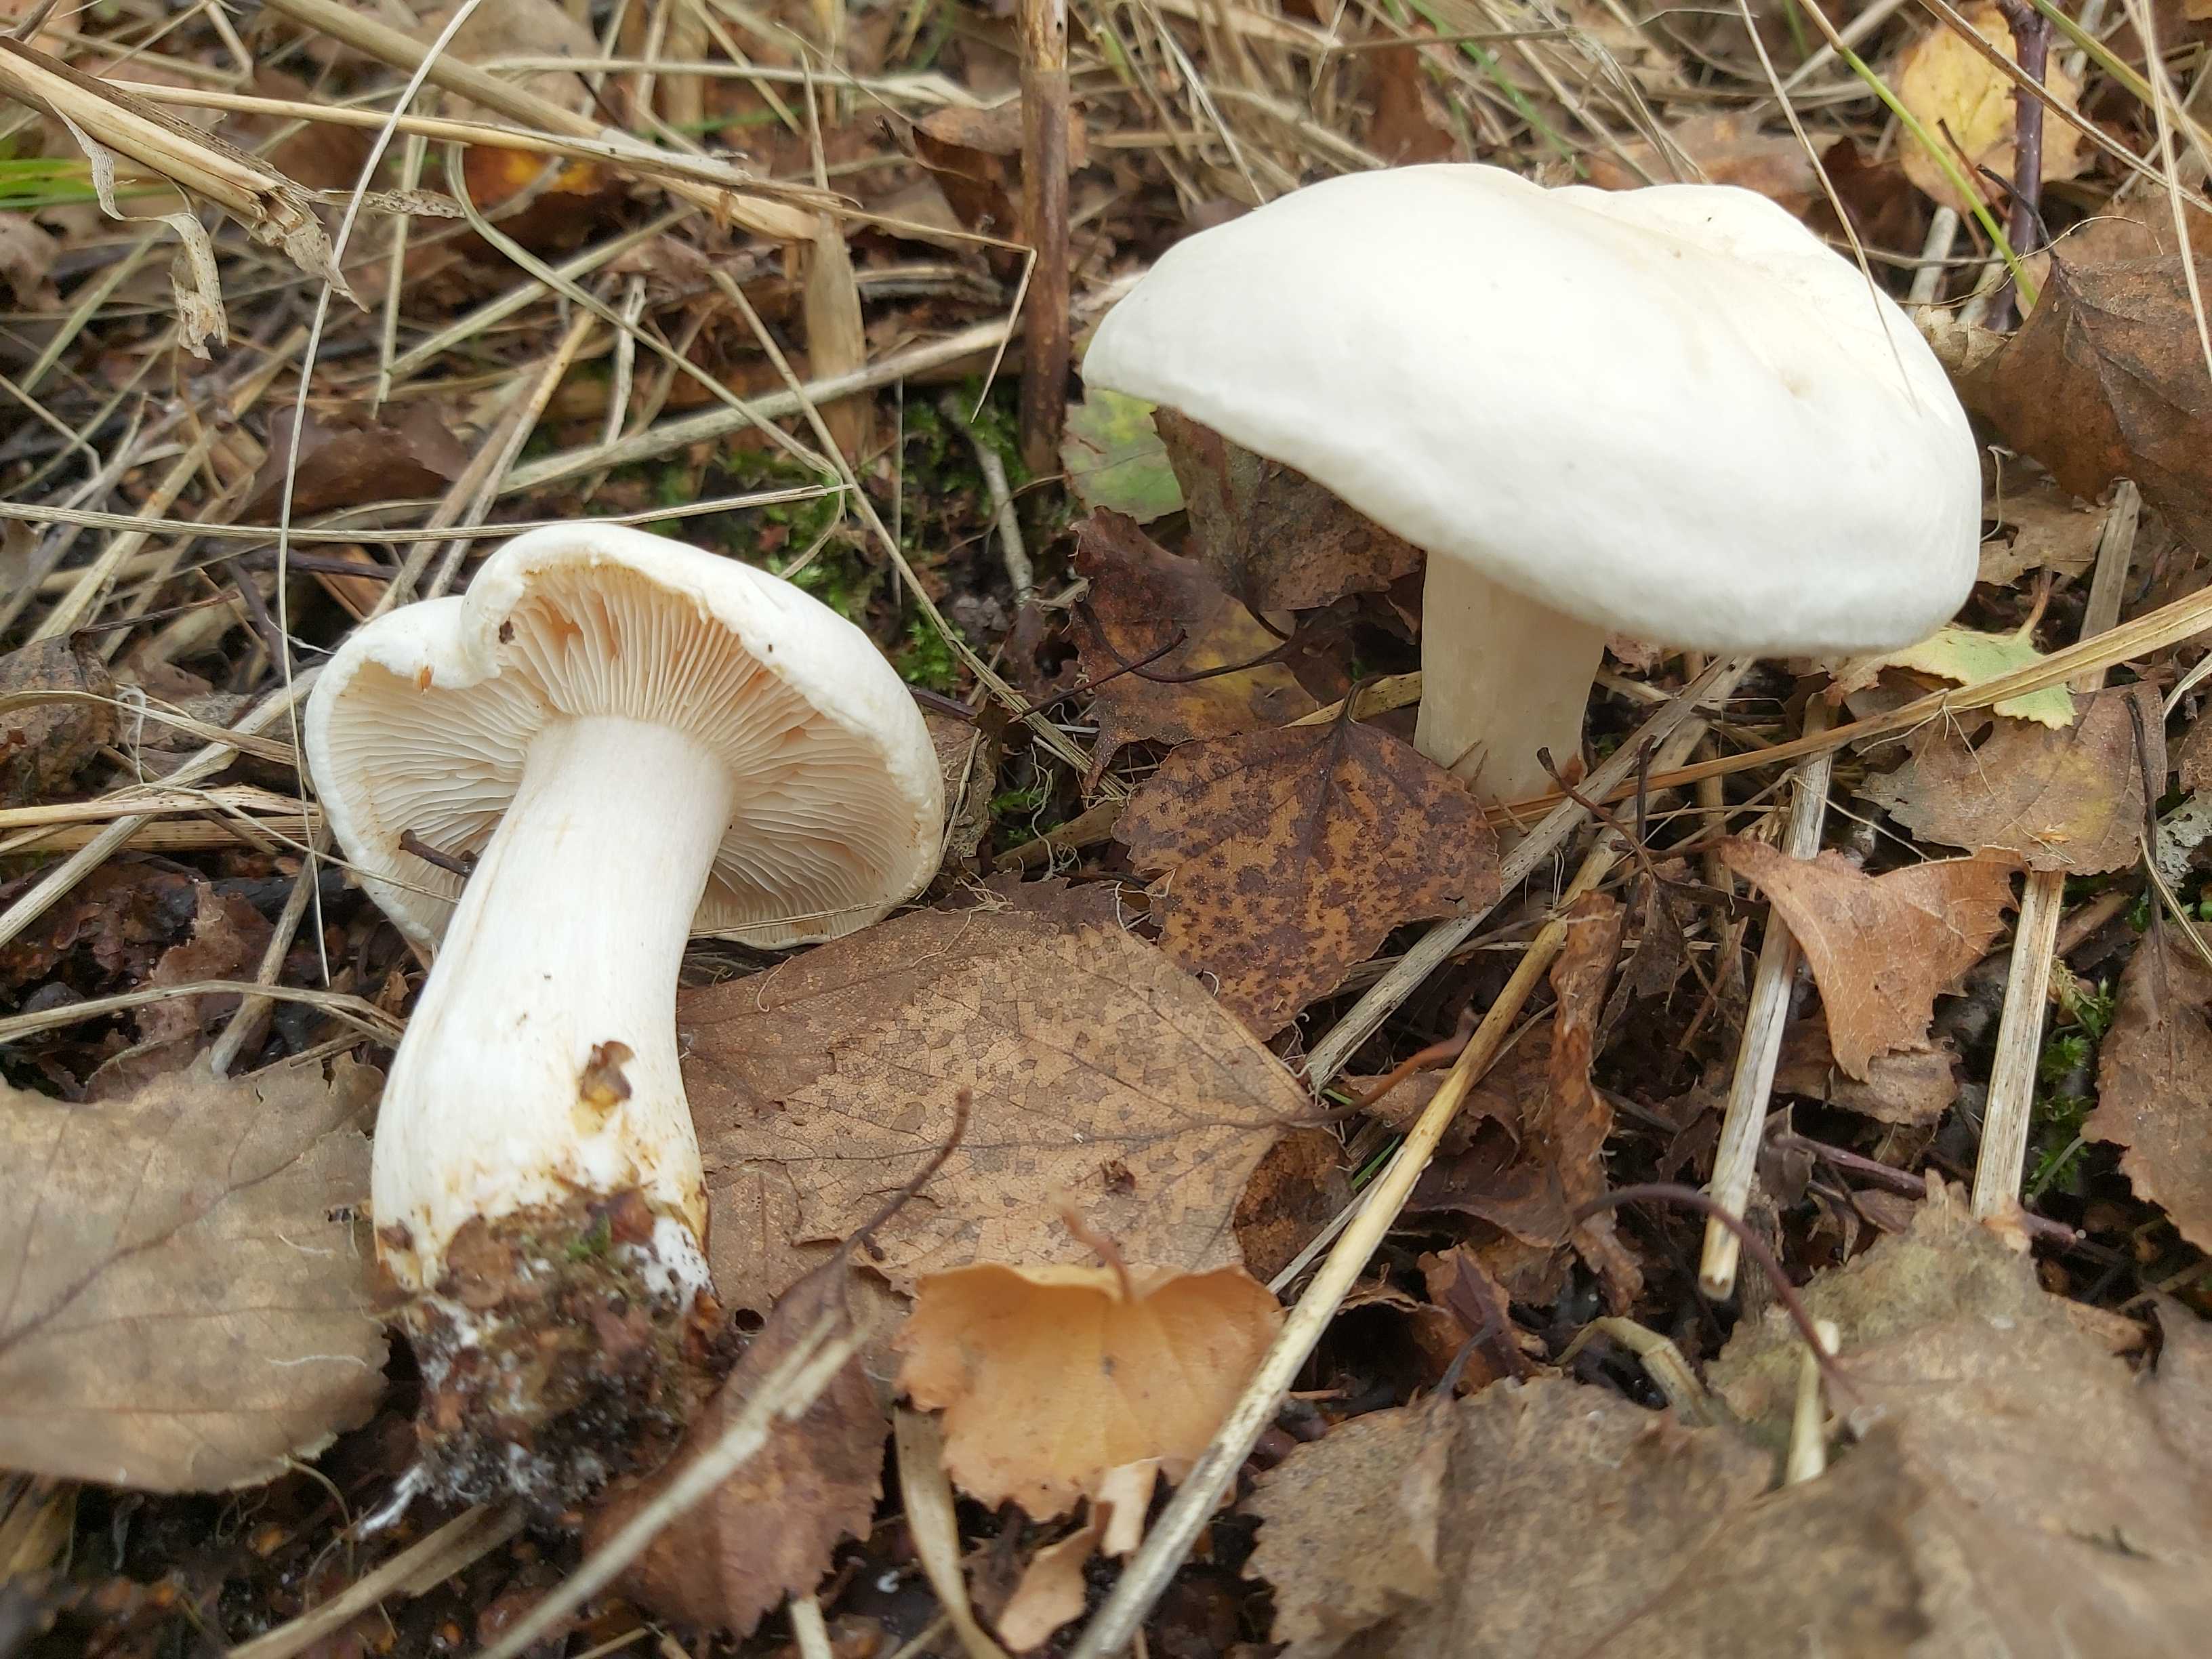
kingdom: Fungi
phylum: Basidiomycota
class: Agaricomycetes
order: Agaricales
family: Tricholomataceae
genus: Tricholoma
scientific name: Tricholoma stiparophyllum
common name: hvid ridderhat
